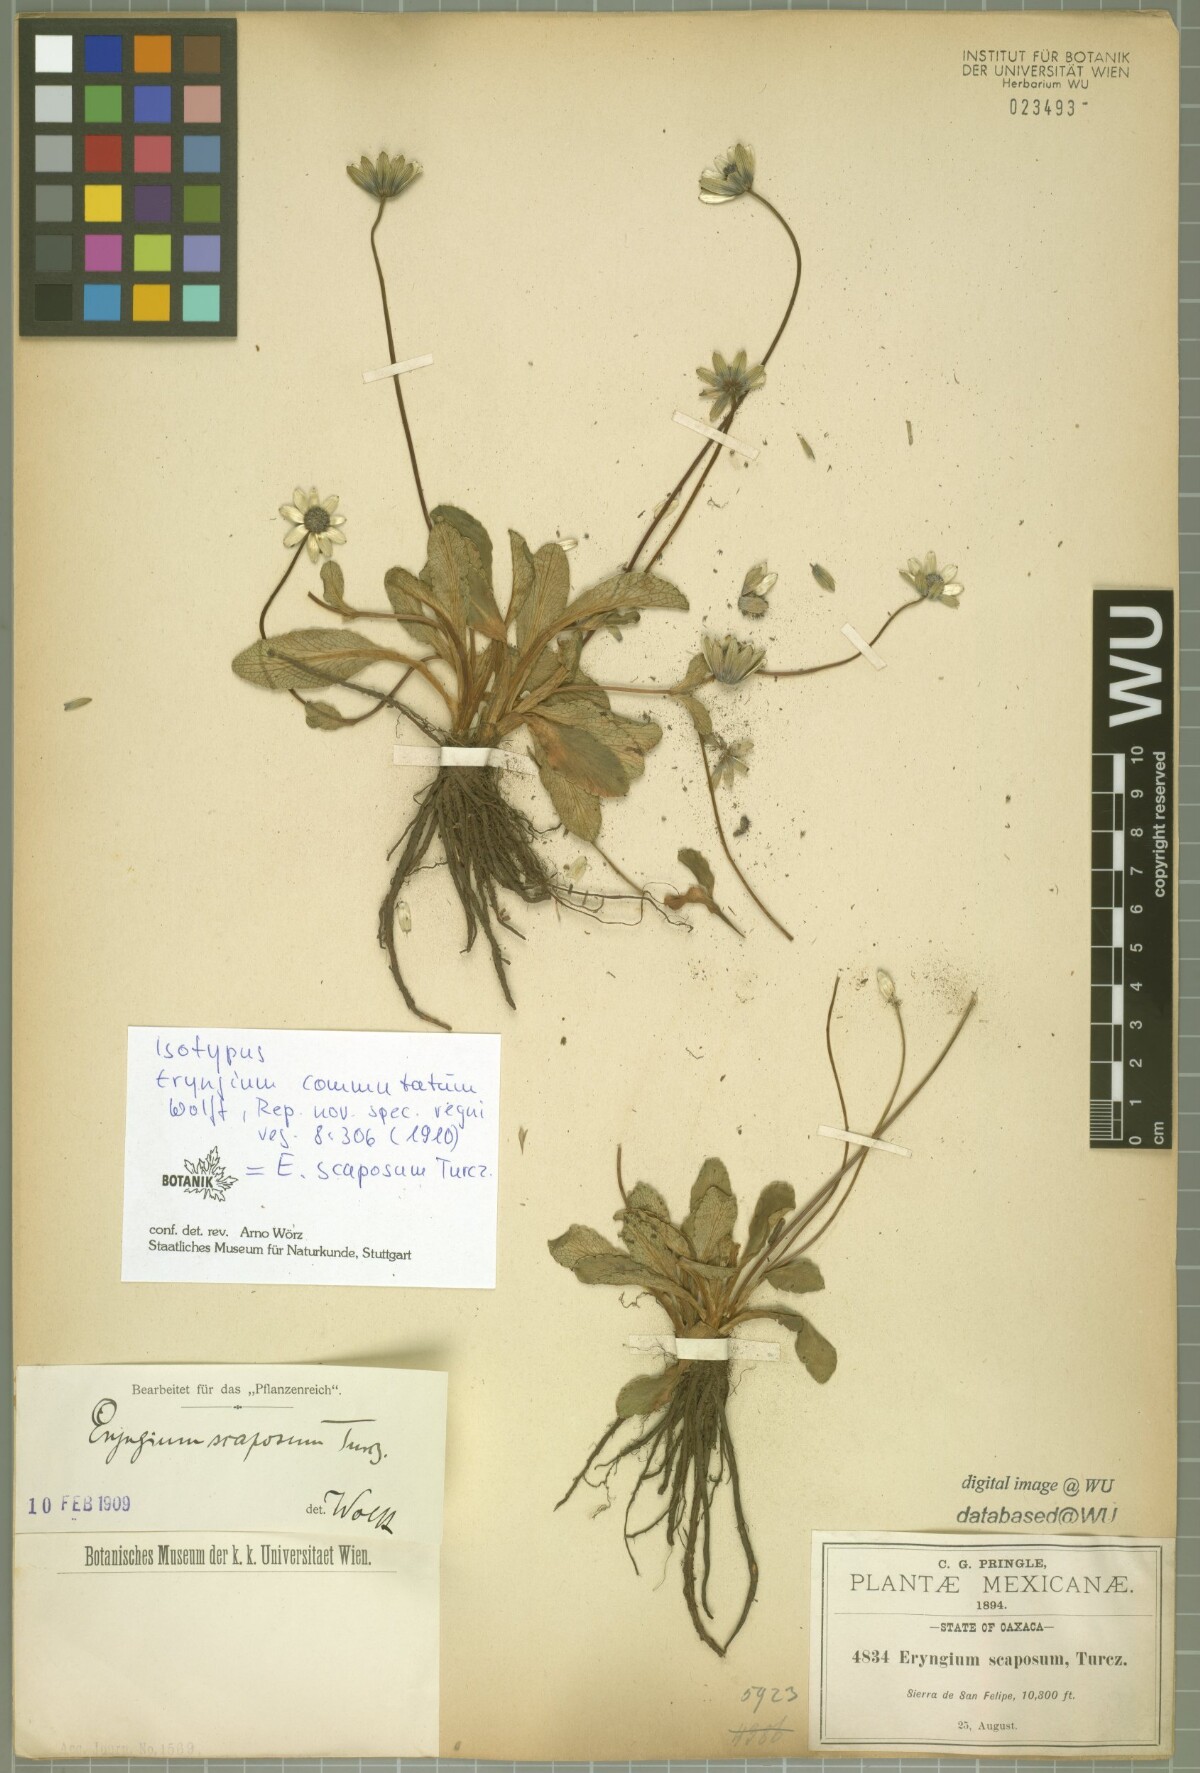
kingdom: Plantae
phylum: Tracheophyta
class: Magnoliopsida
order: Apiales
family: Apiaceae
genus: Eryngium
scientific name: Eryngium scaposum
